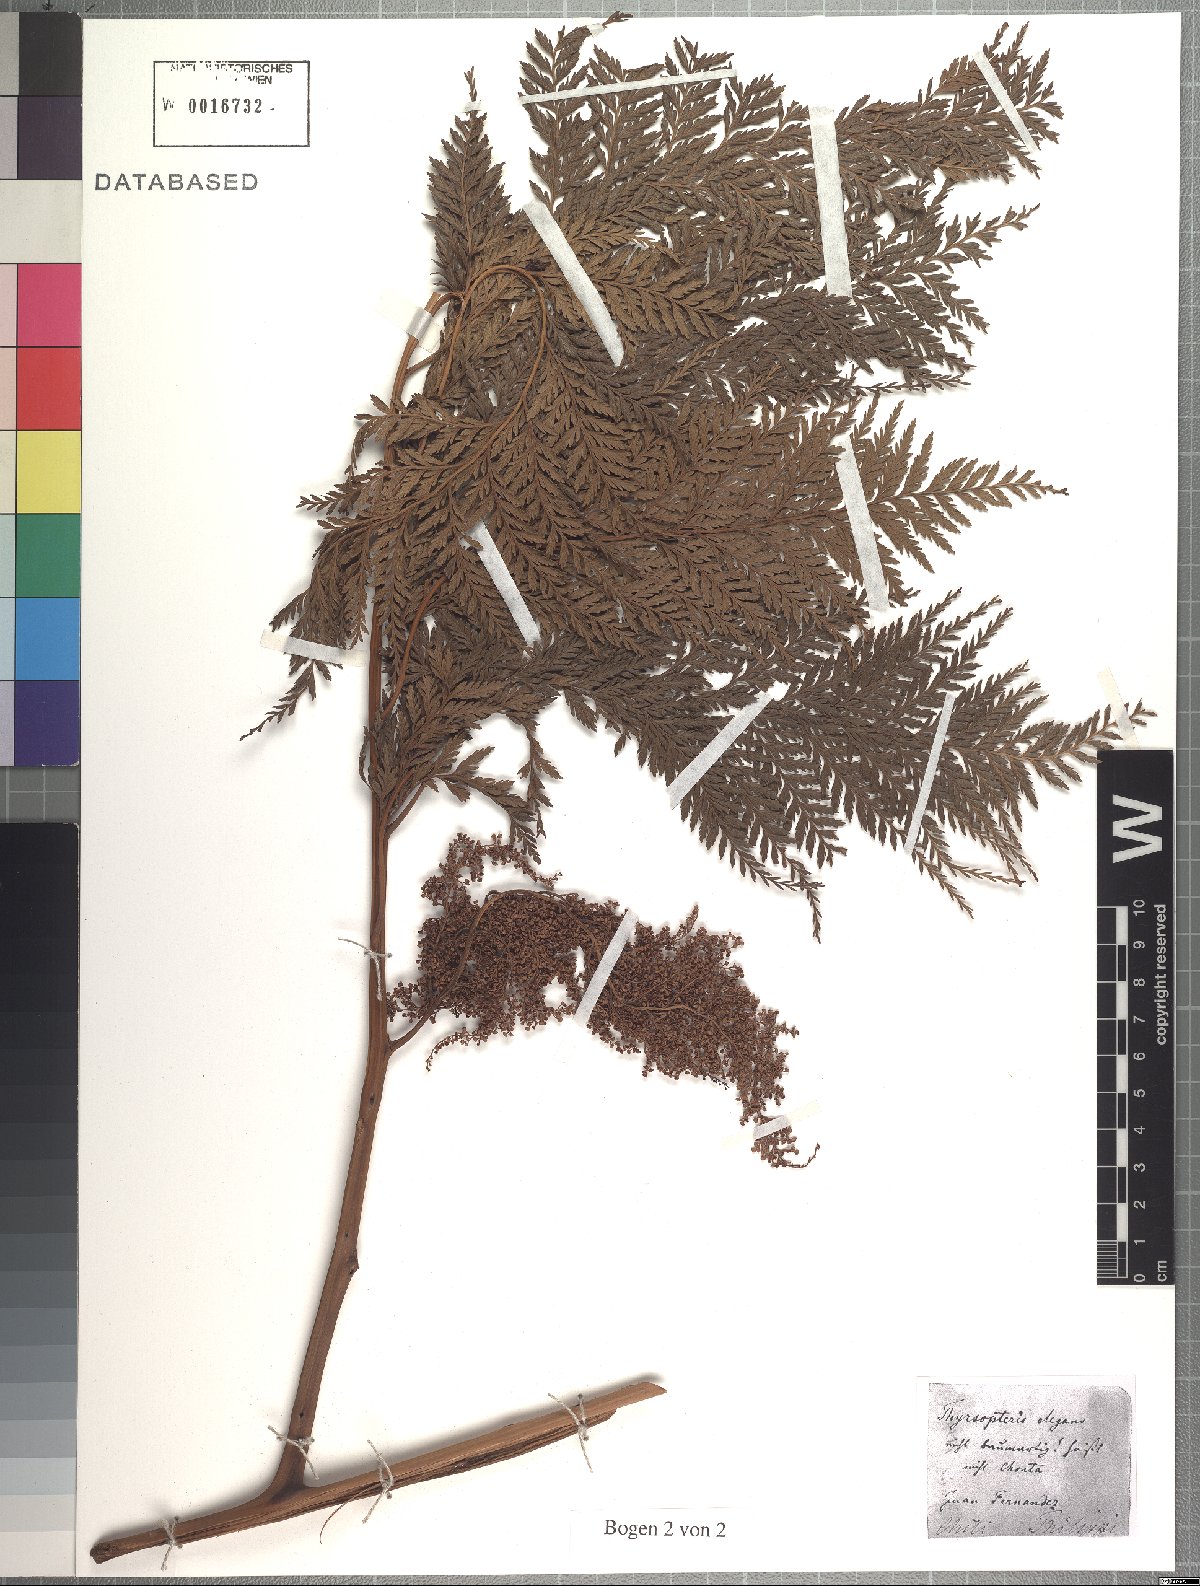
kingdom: Plantae
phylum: Tracheophyta
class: Polypodiopsida
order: Cyatheales
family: Thyrsopteridaceae
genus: Thyrsopteris
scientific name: Thyrsopteris elegans
